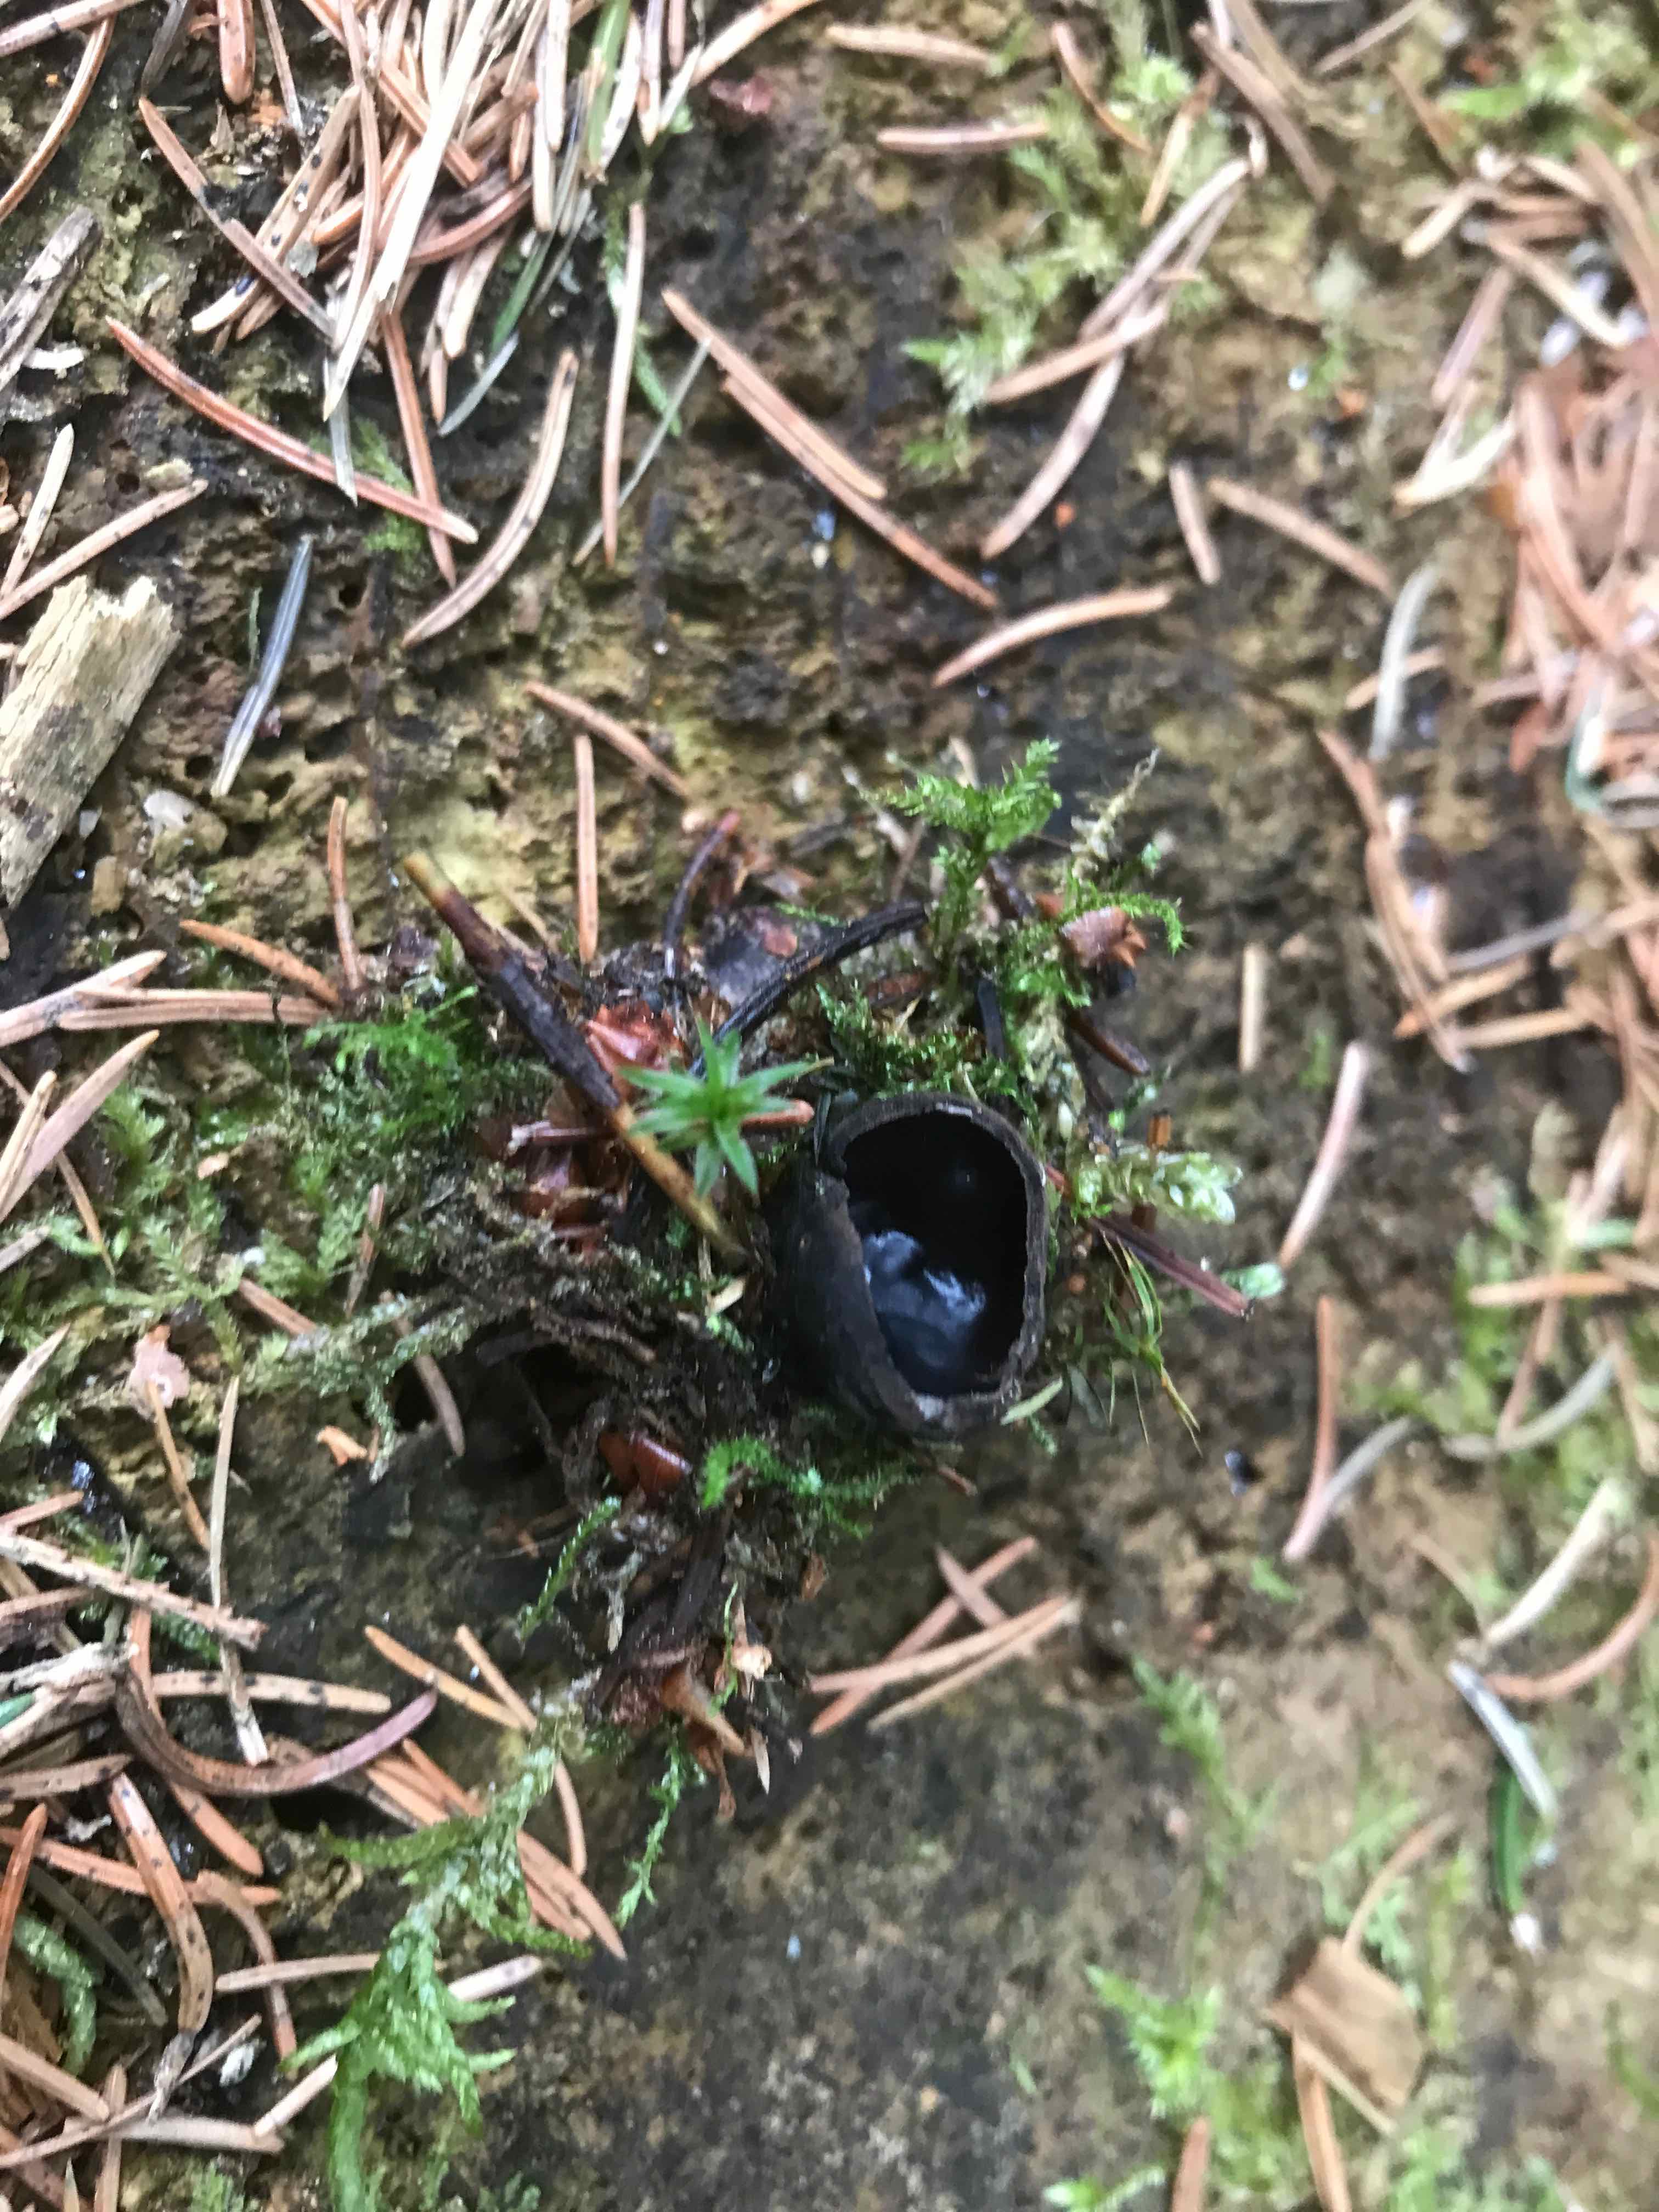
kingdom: Fungi
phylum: Ascomycota
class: Pezizomycetes
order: Pezizales
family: Sarcosomataceae
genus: Pseudoplectania
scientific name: Pseudoplectania nigrella
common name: almindelig sortbæger
